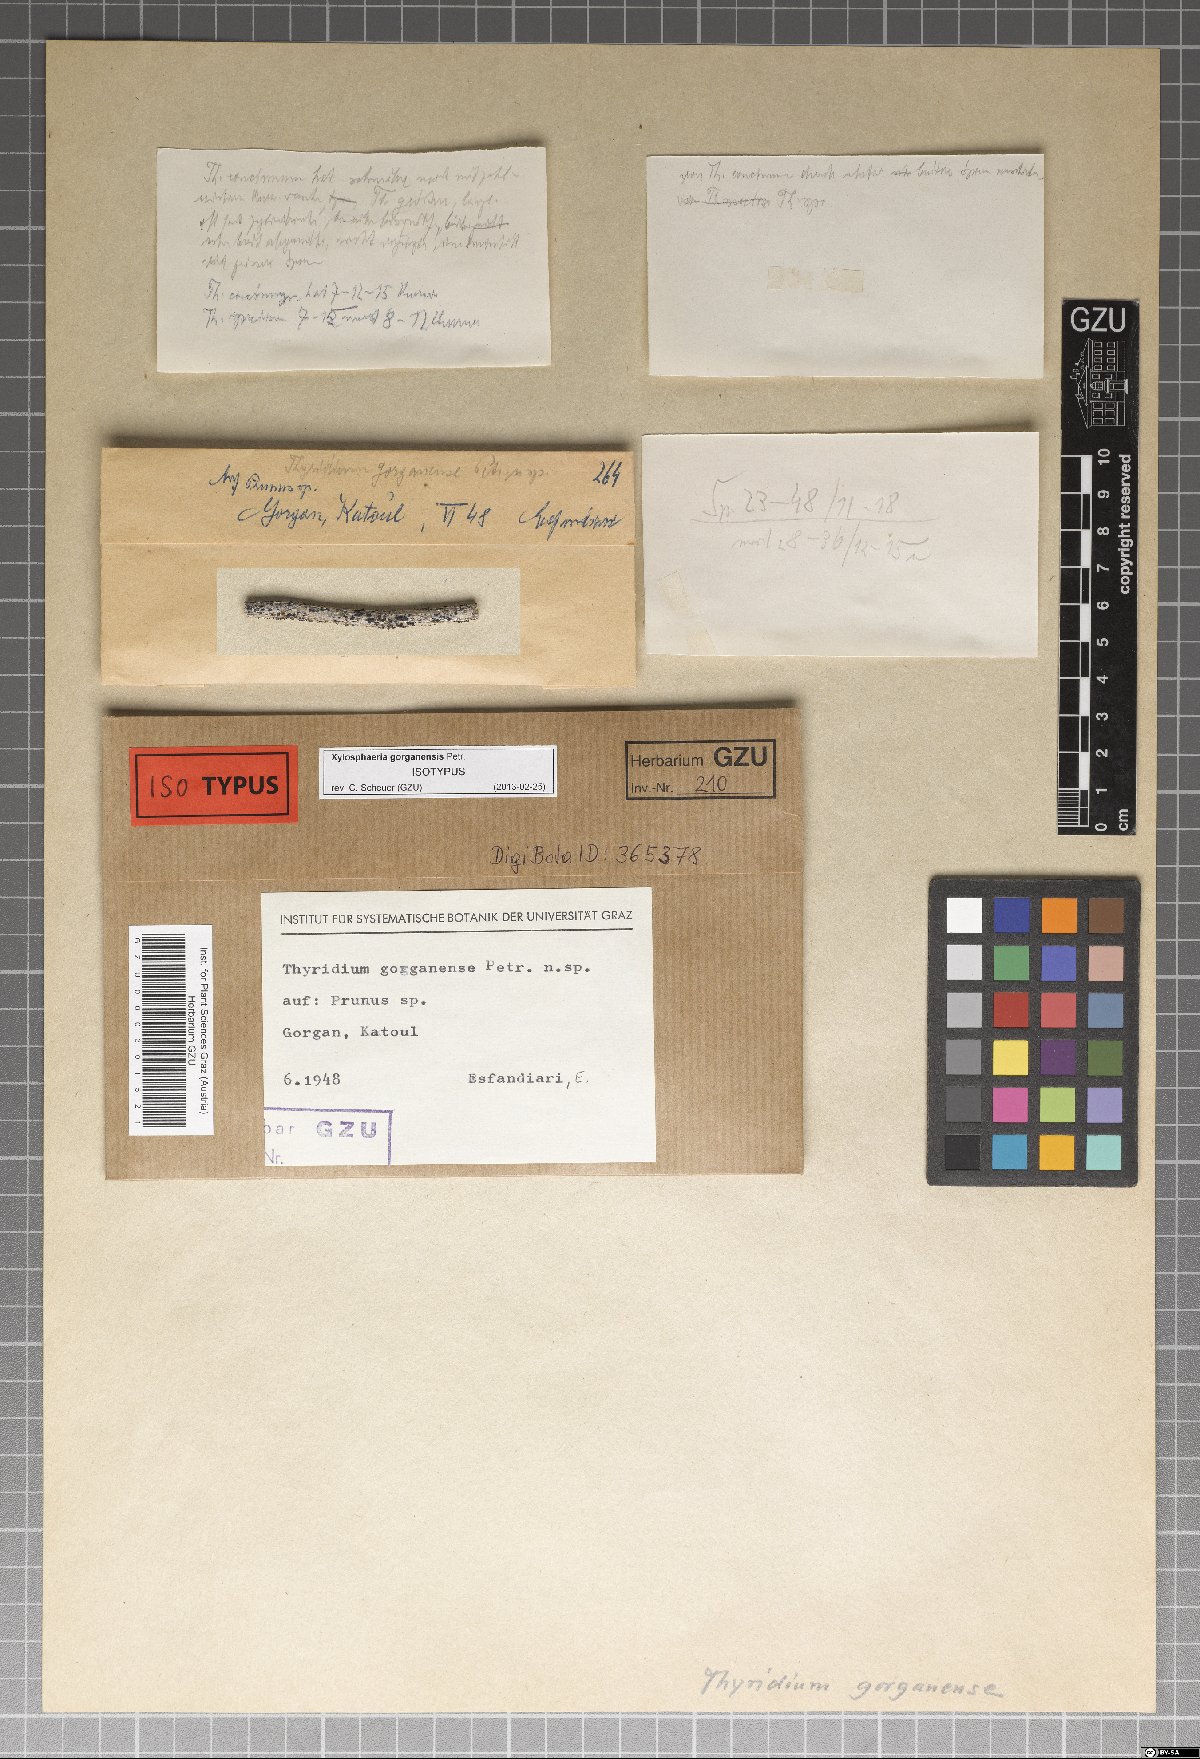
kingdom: Fungi
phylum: Ascomycota
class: Dothideomycetes
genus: Xylosphaeria
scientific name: Xylosphaeria gorganensis
